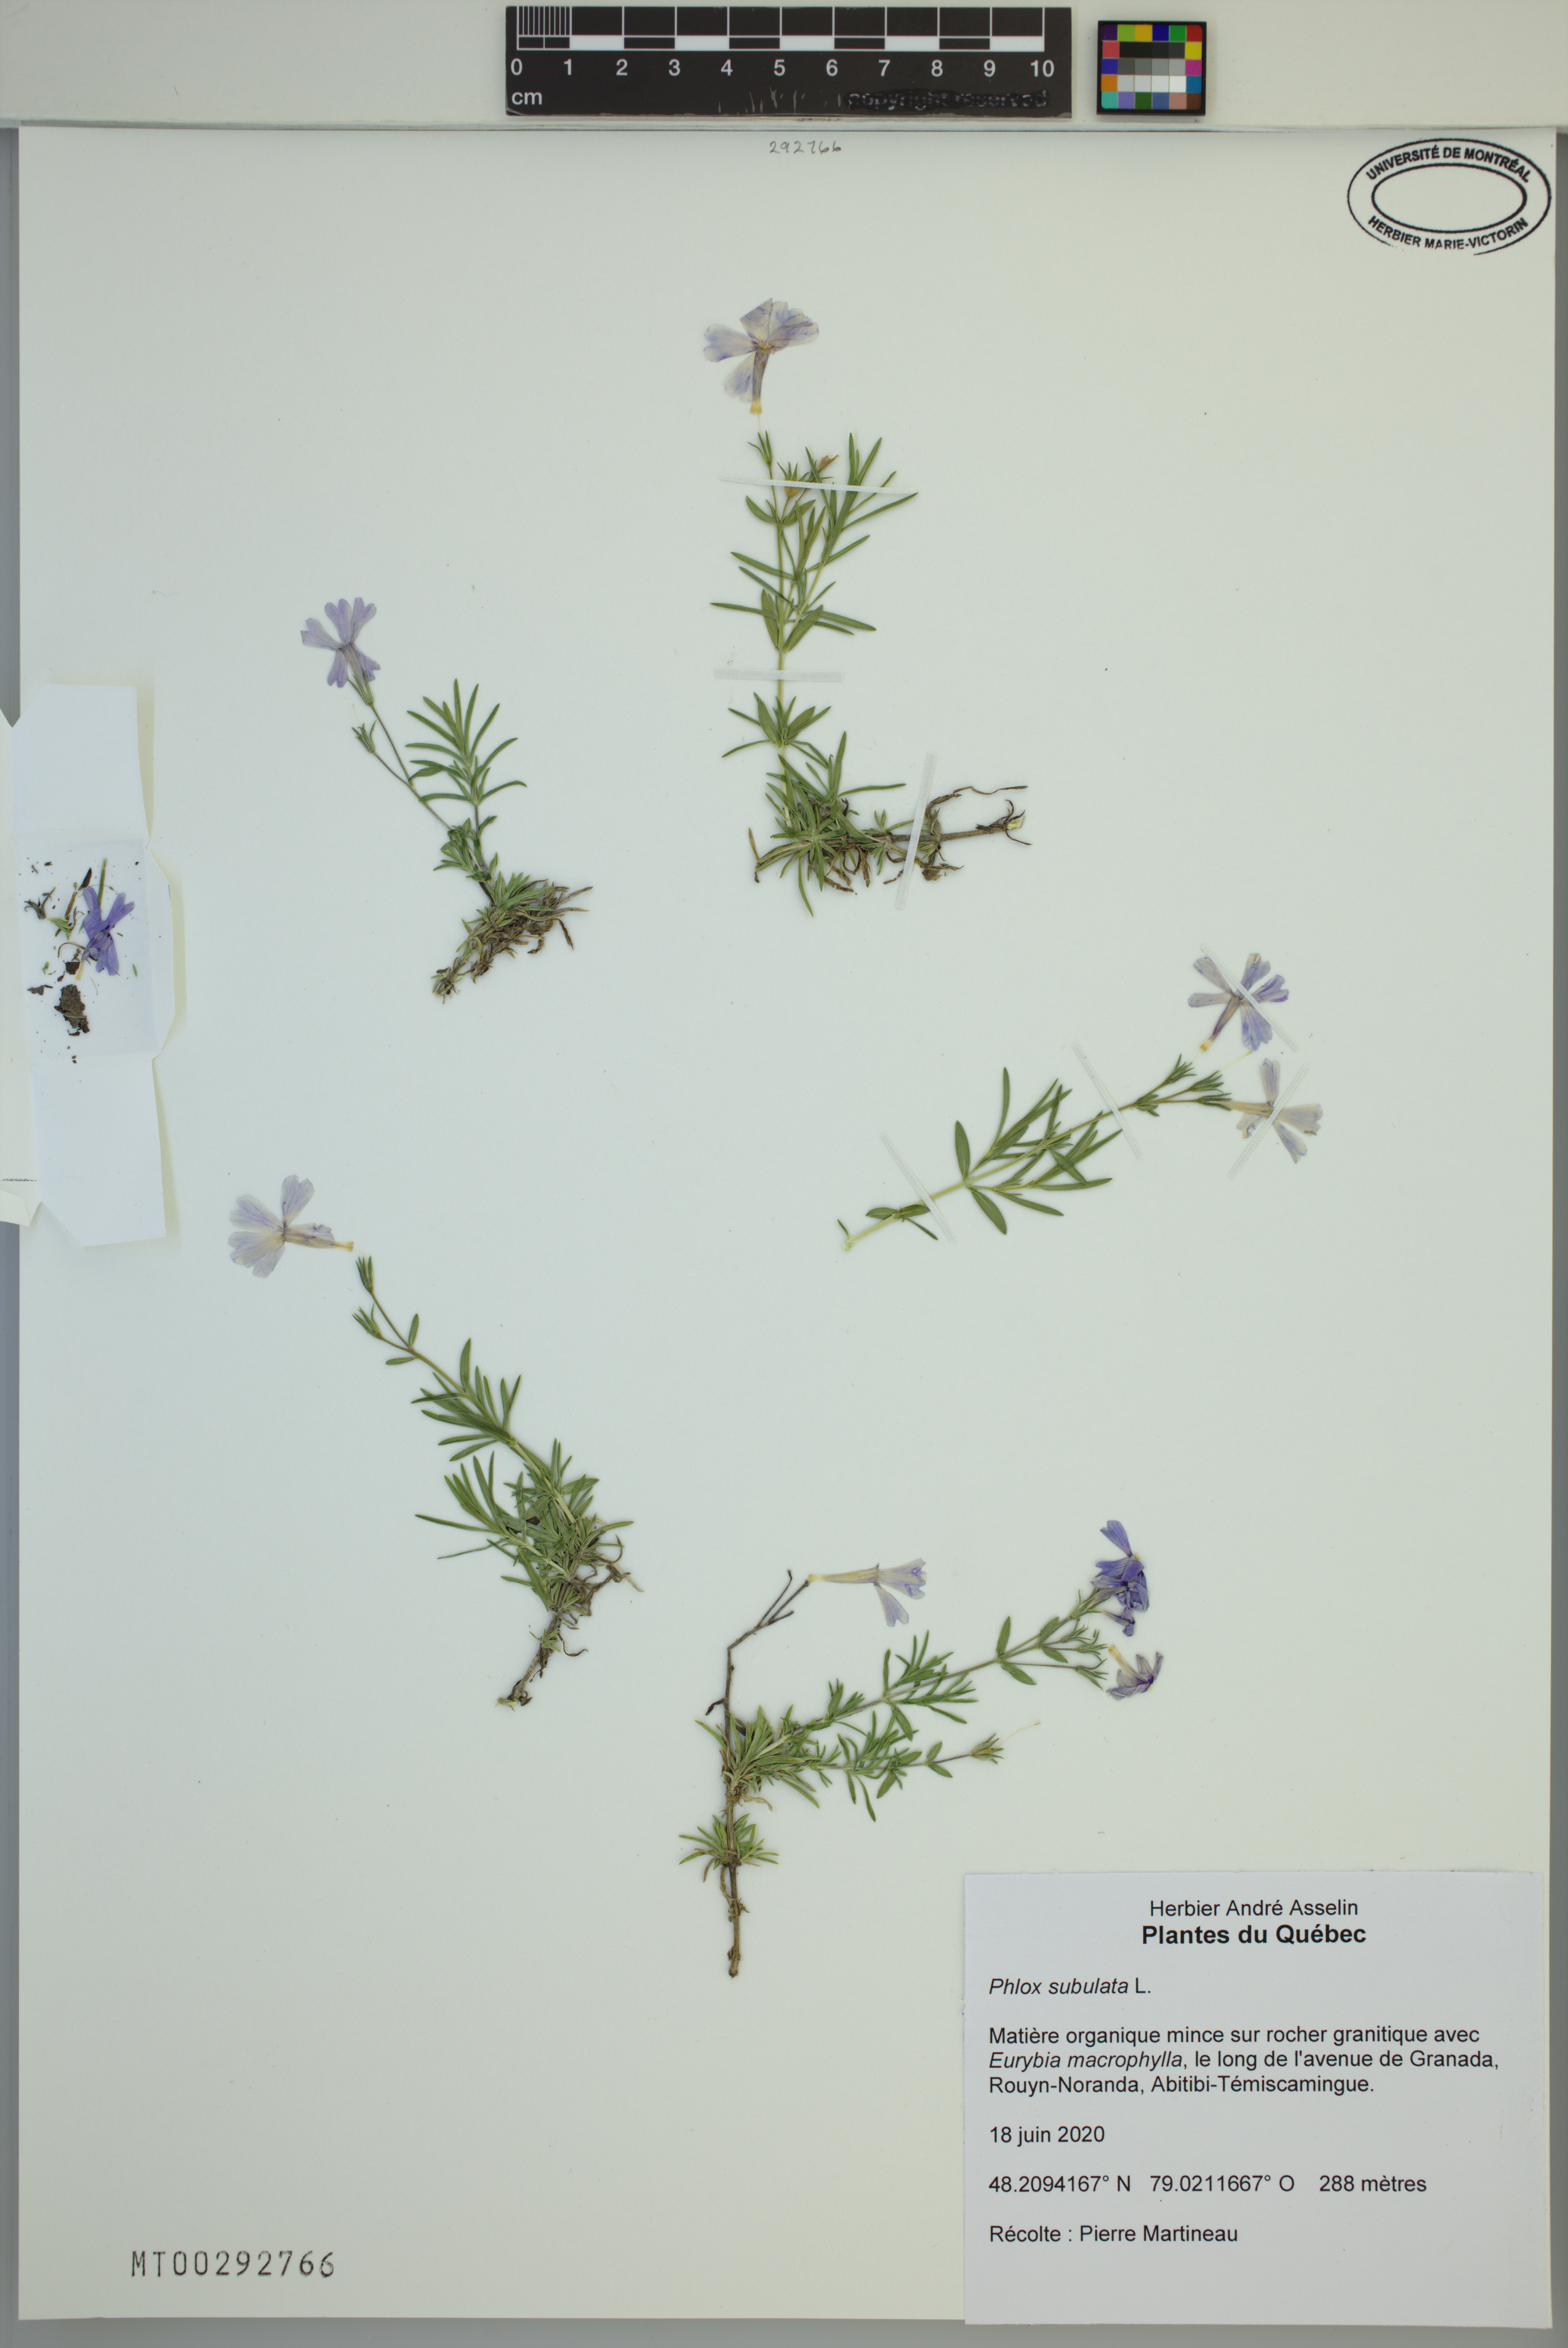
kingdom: Plantae
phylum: Tracheophyta
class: Magnoliopsida
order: Ericales
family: Polemoniaceae
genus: Phlox
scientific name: Phlox subulata
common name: Moss phlox
